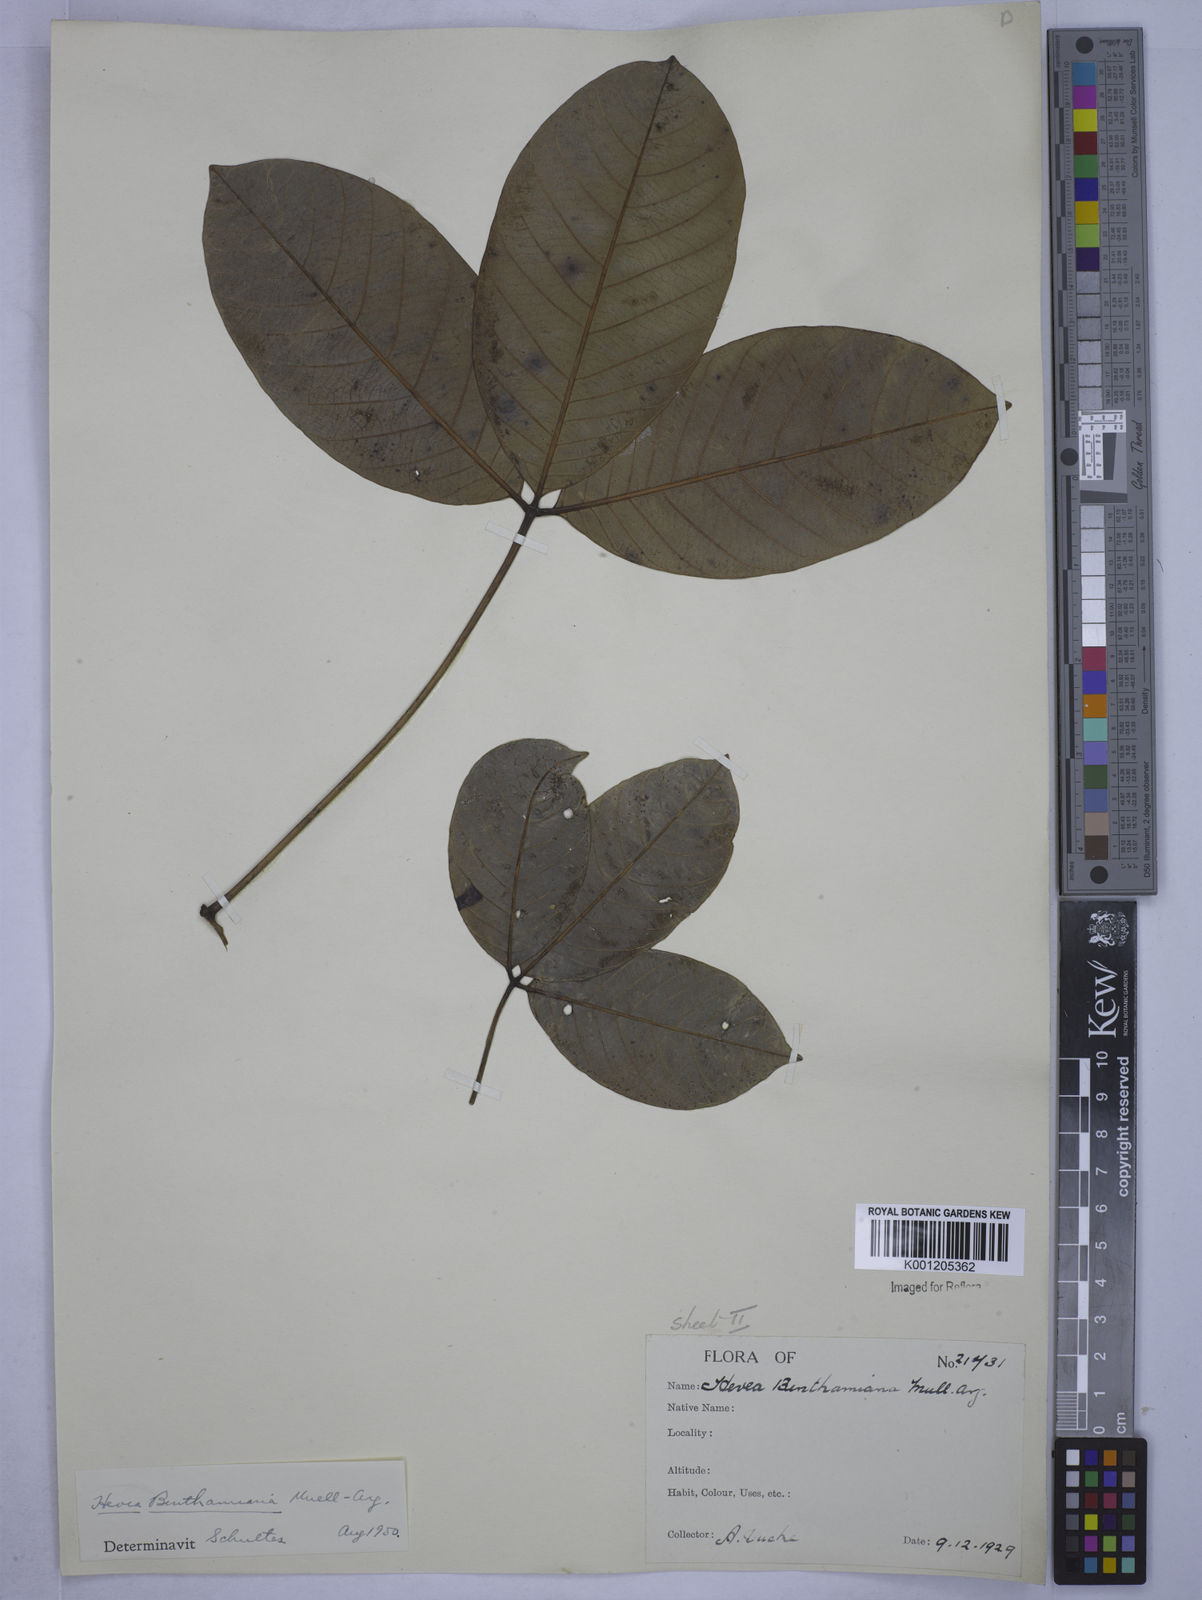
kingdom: Plantae
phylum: Tracheophyta
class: Magnoliopsida
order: Malpighiales
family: Euphorbiaceae
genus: Hevea
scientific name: Hevea
